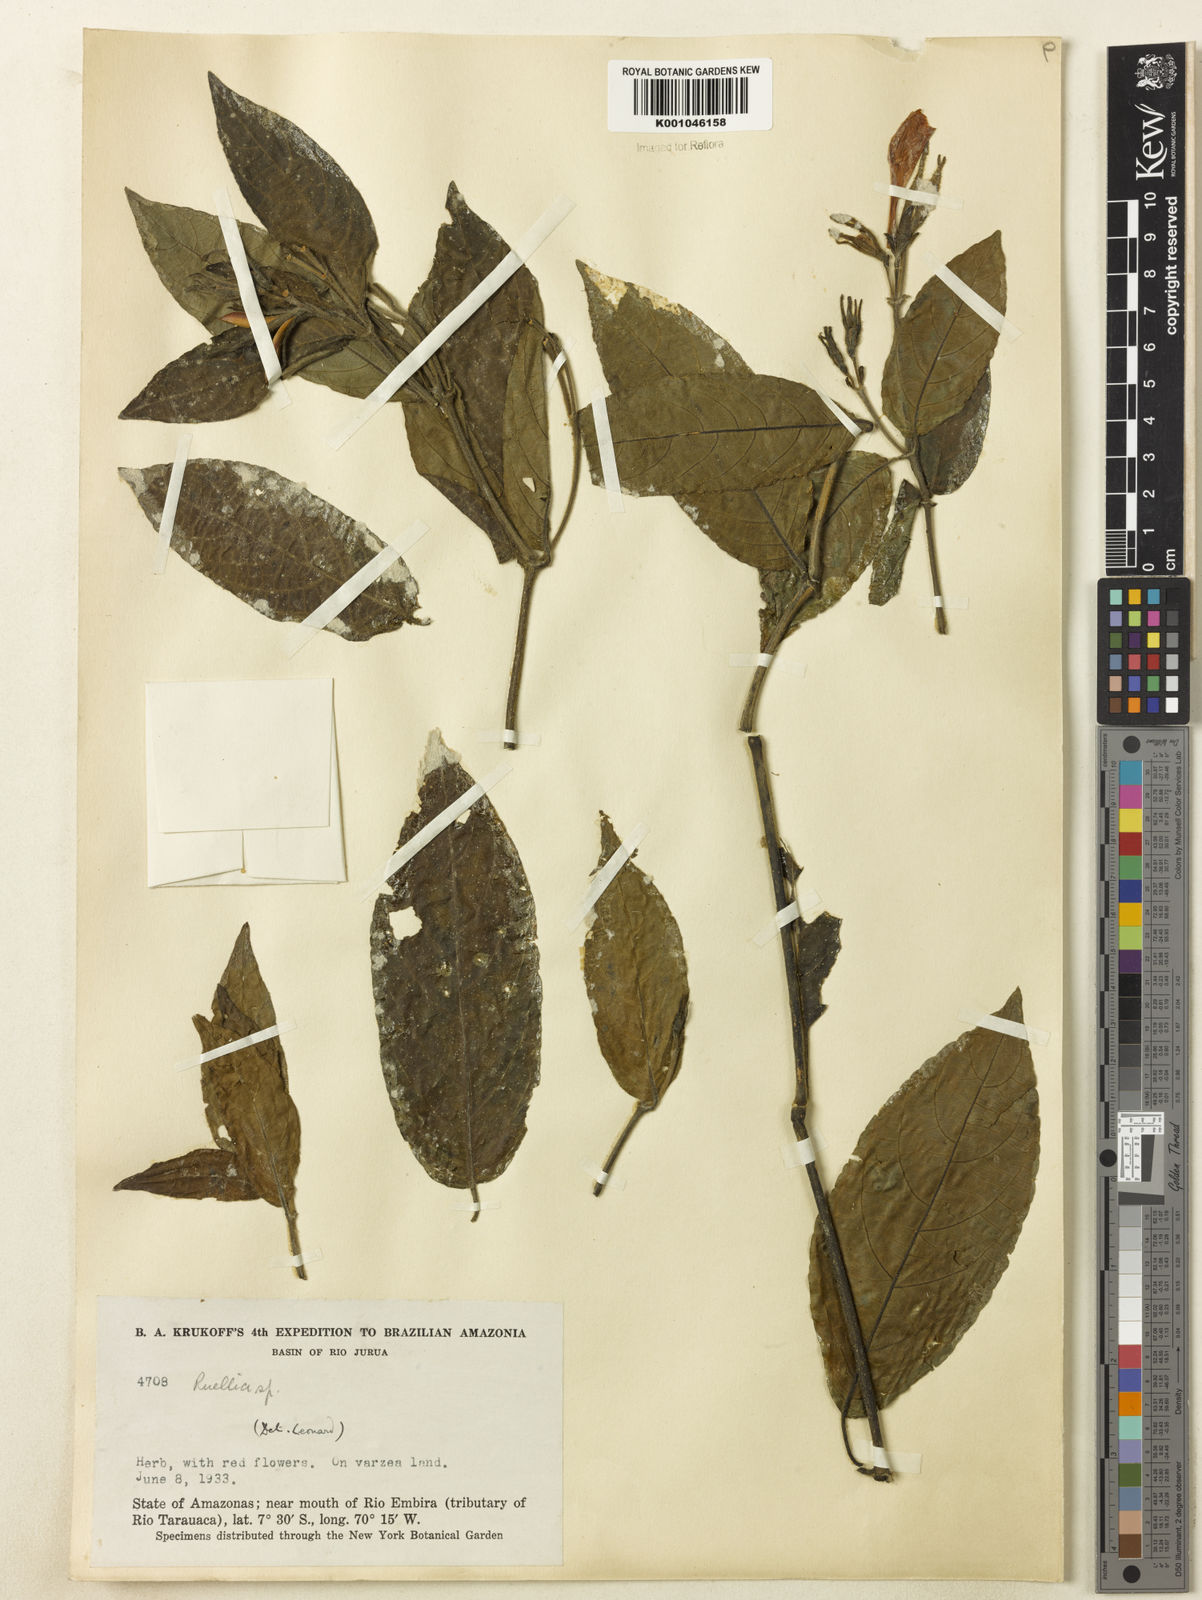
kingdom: Plantae
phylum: Tracheophyta
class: Magnoliopsida
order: Lamiales
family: Acanthaceae
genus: Ruellia
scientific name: Ruellia
